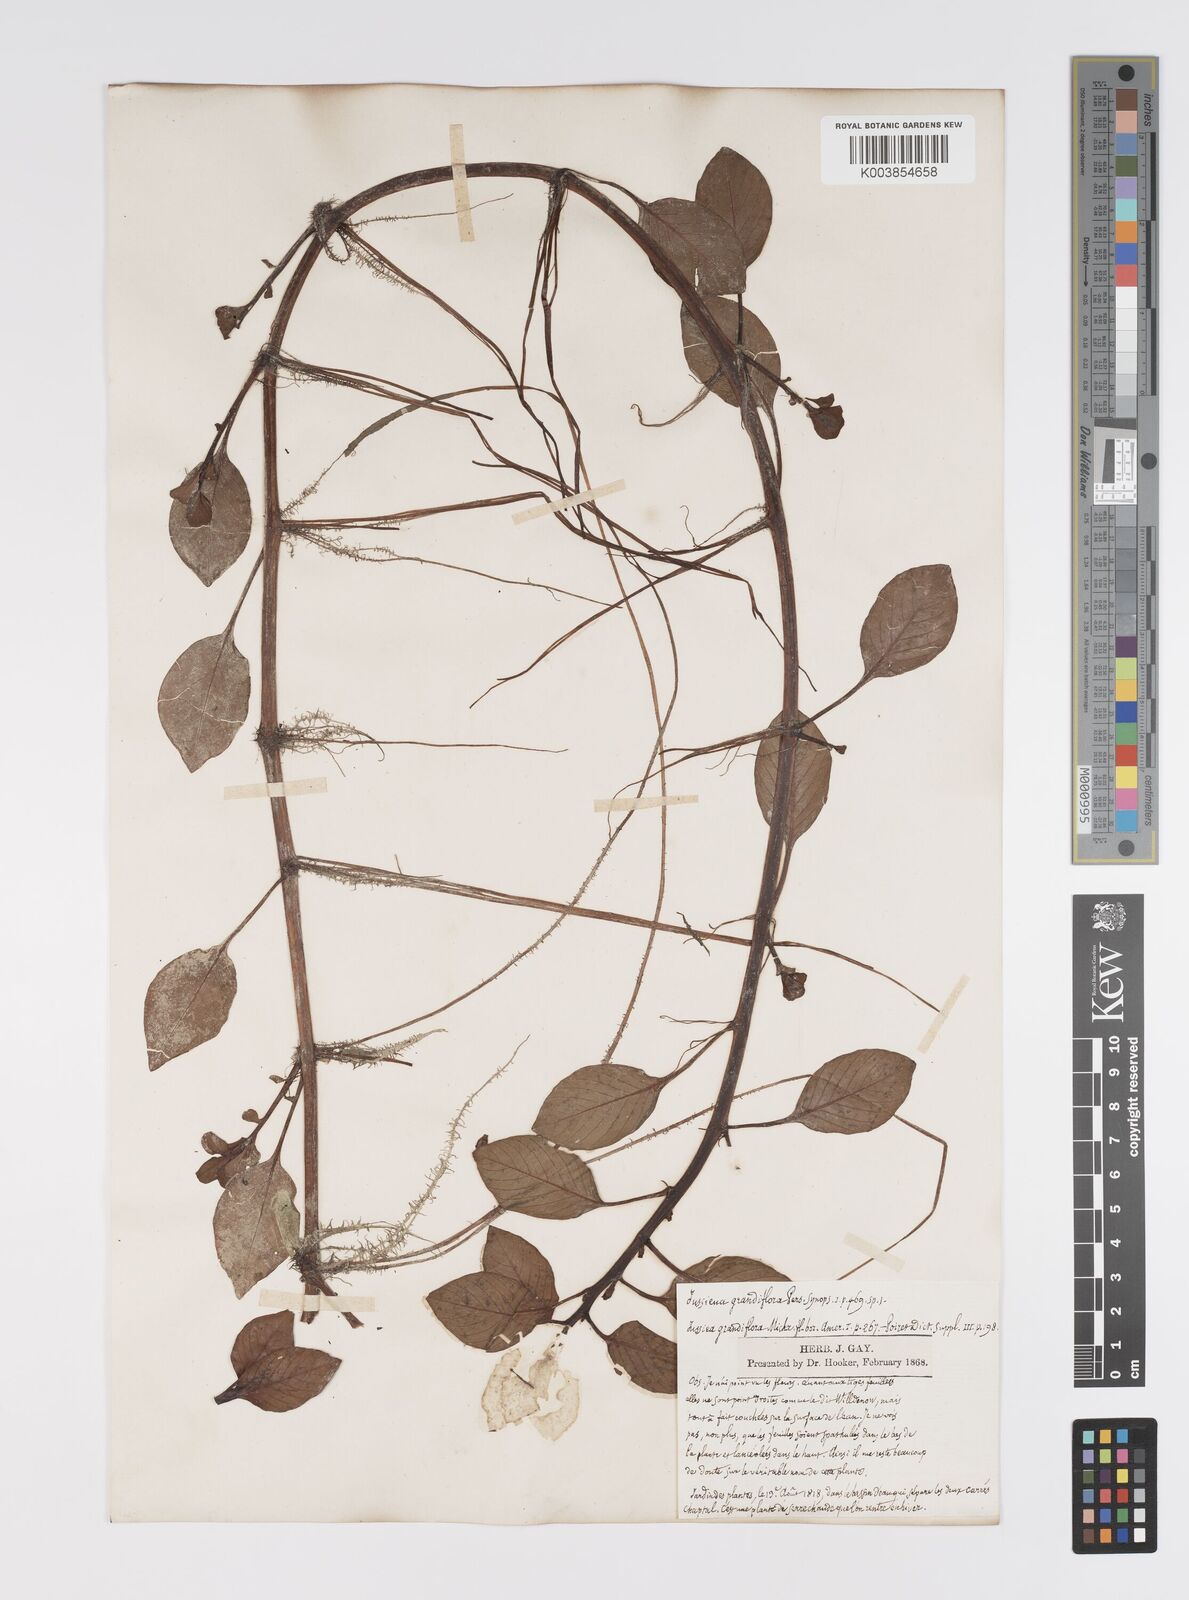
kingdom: Plantae
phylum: Tracheophyta
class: Magnoliopsida
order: Myrtales
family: Onagraceae
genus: Ludwigia
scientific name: Ludwigia
